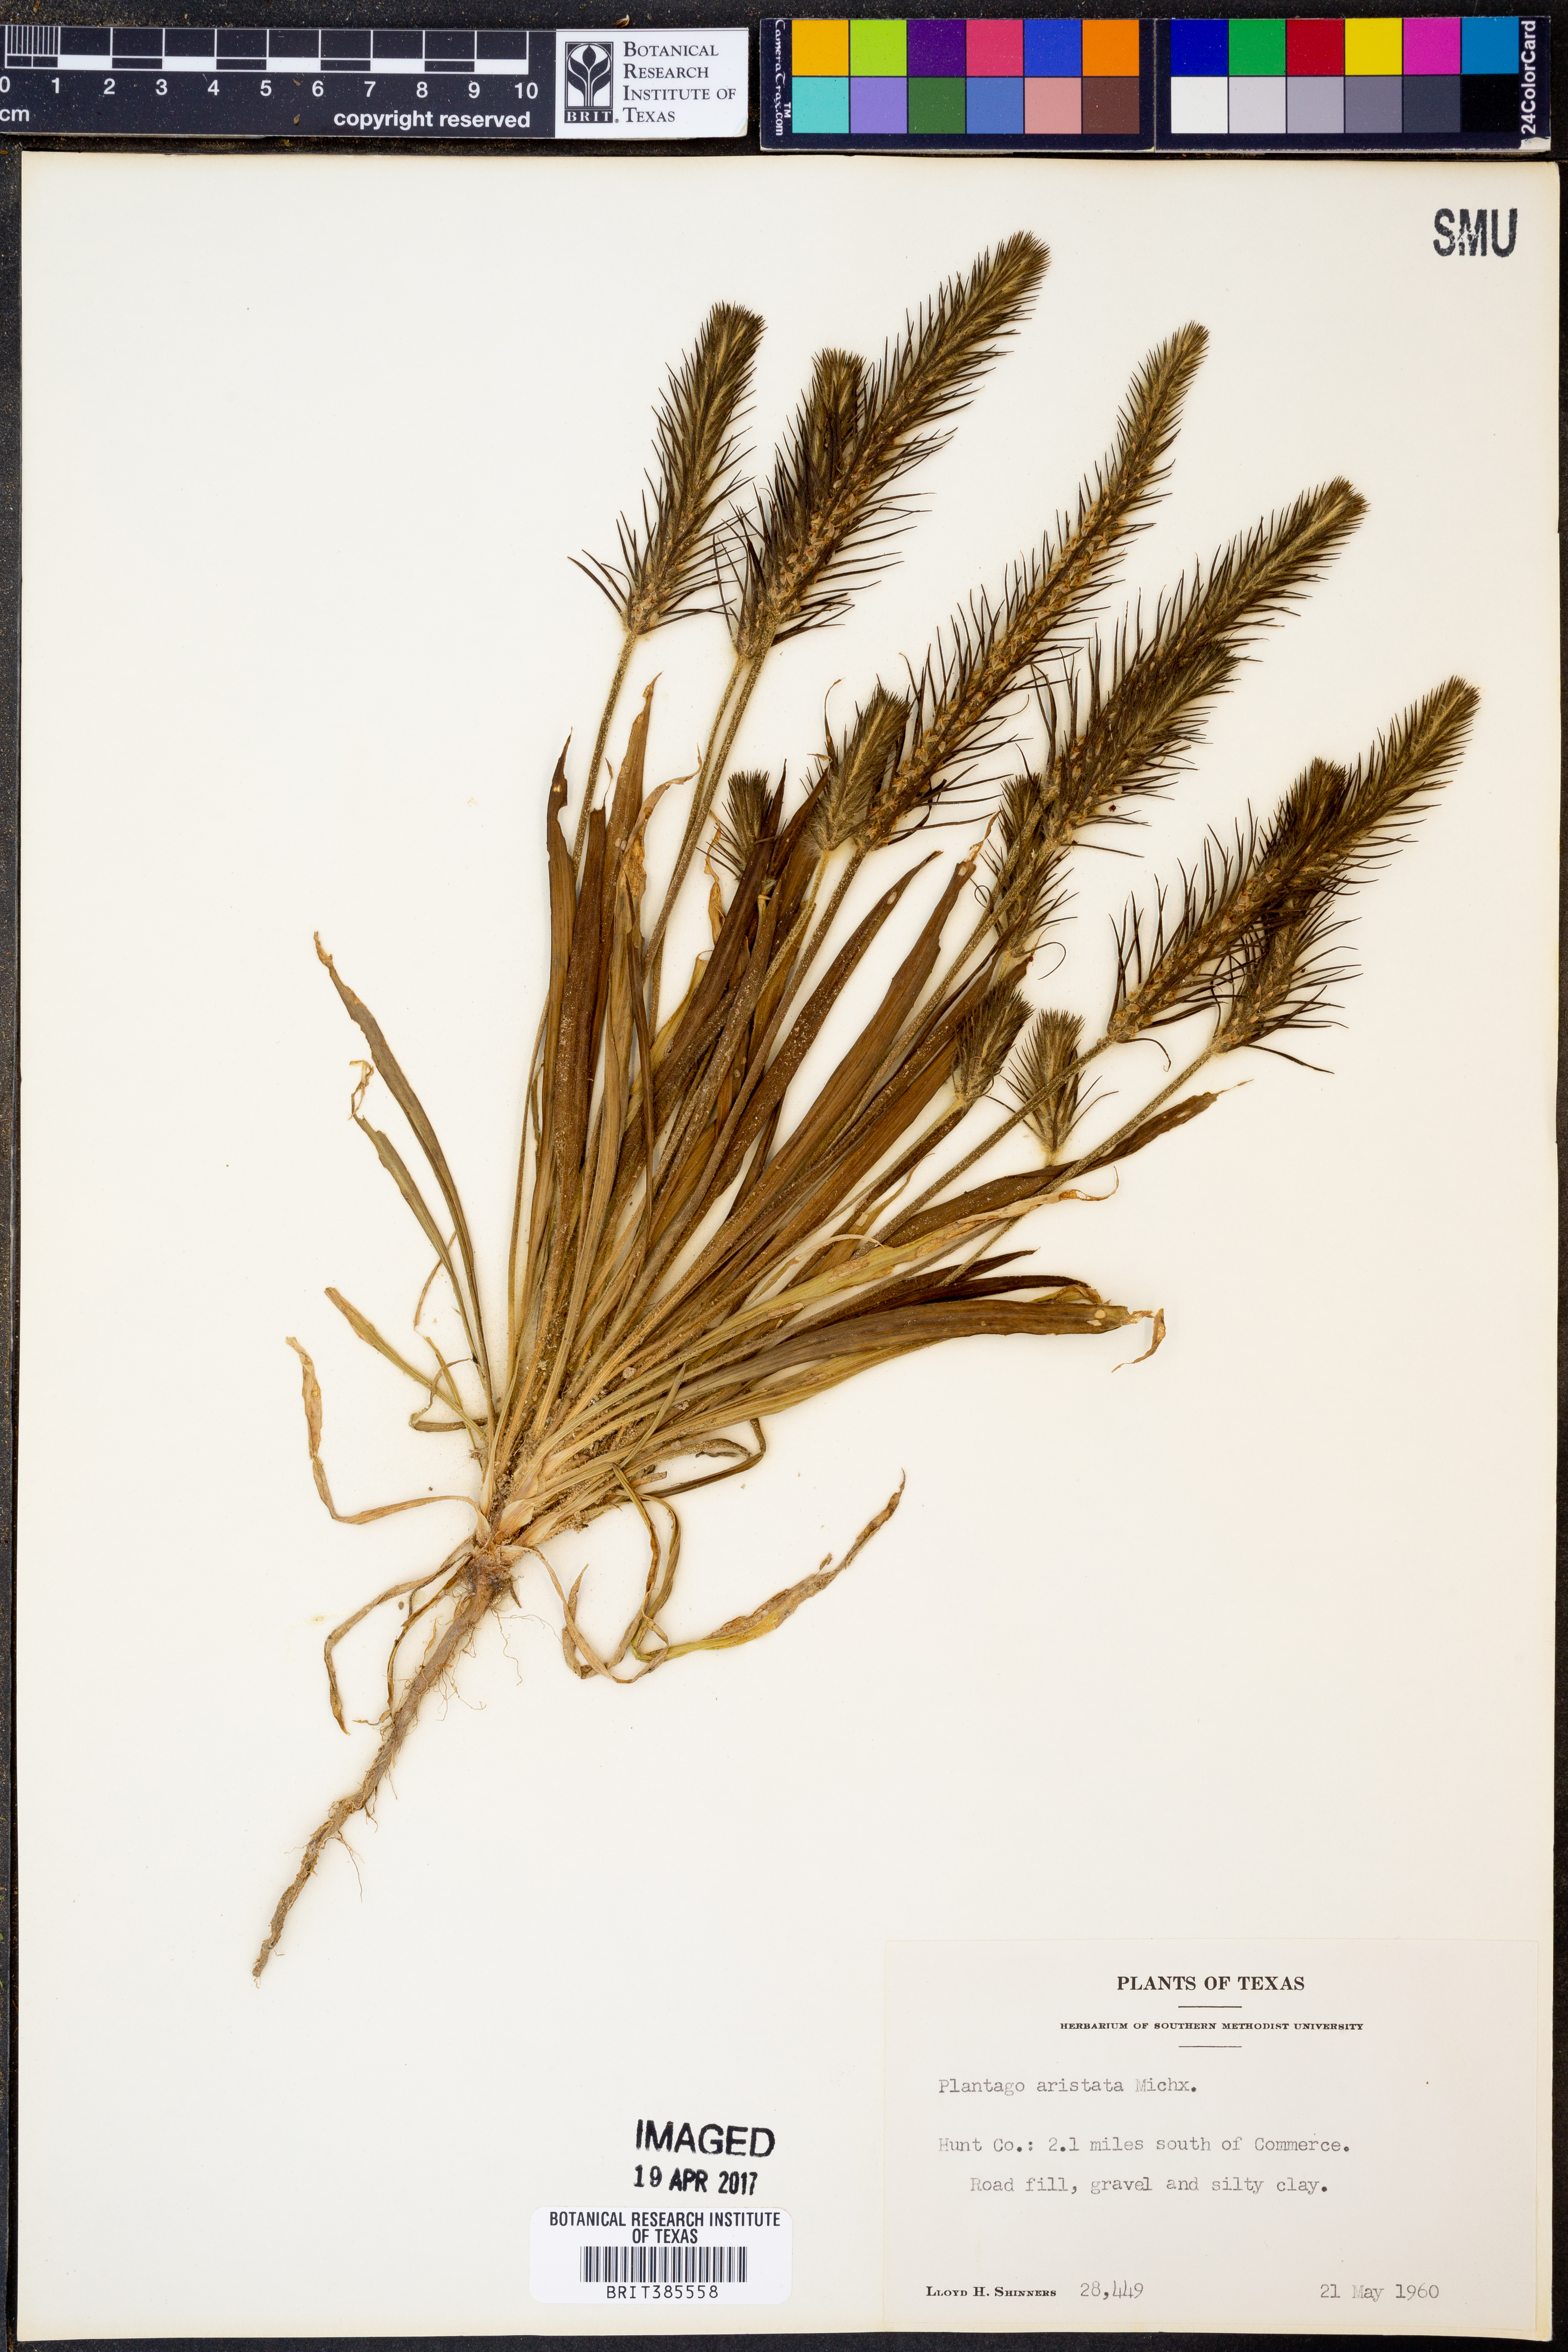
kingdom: Plantae
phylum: Tracheophyta
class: Magnoliopsida
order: Lamiales
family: Plantaginaceae
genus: Plantago
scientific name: Plantago aristata
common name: Bracted plantain
